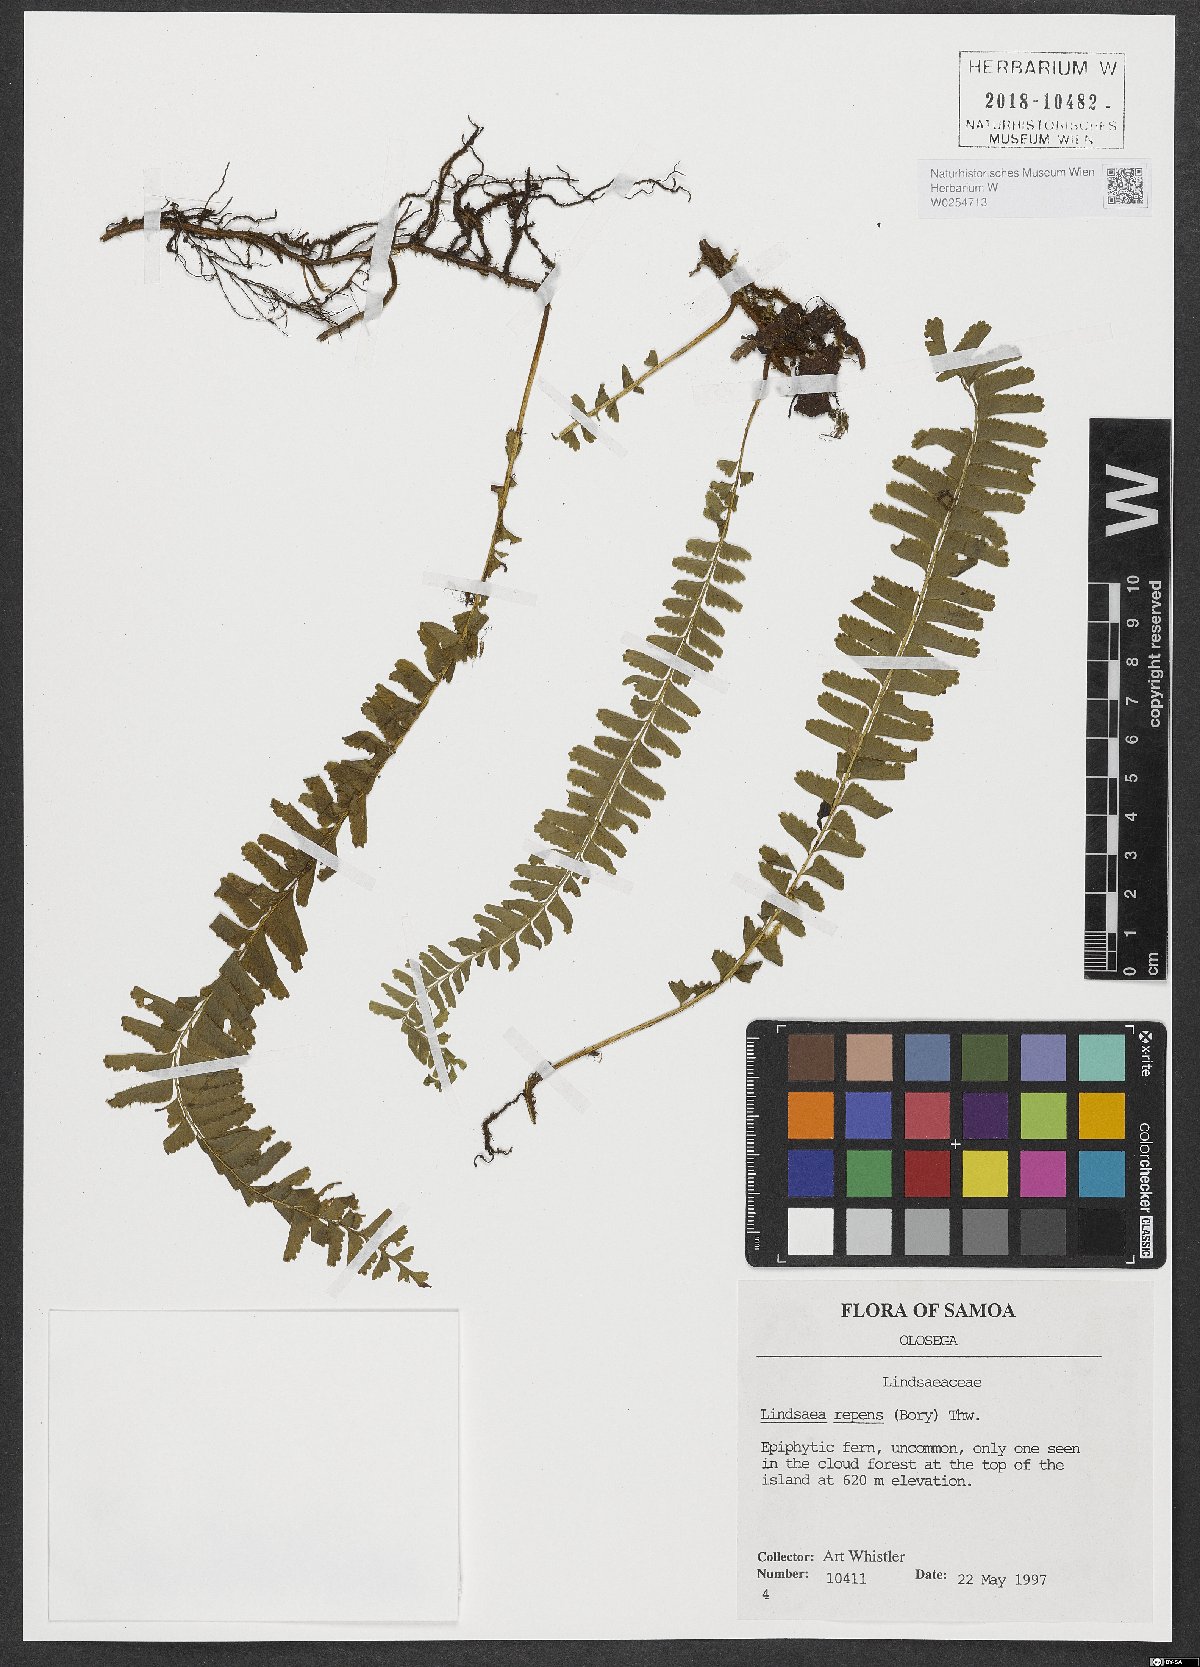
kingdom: Plantae
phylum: Tracheophyta
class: Polypodiopsida
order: Polypodiales
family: Lindsaeaceae
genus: Lindsaea
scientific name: Lindsaea repens
